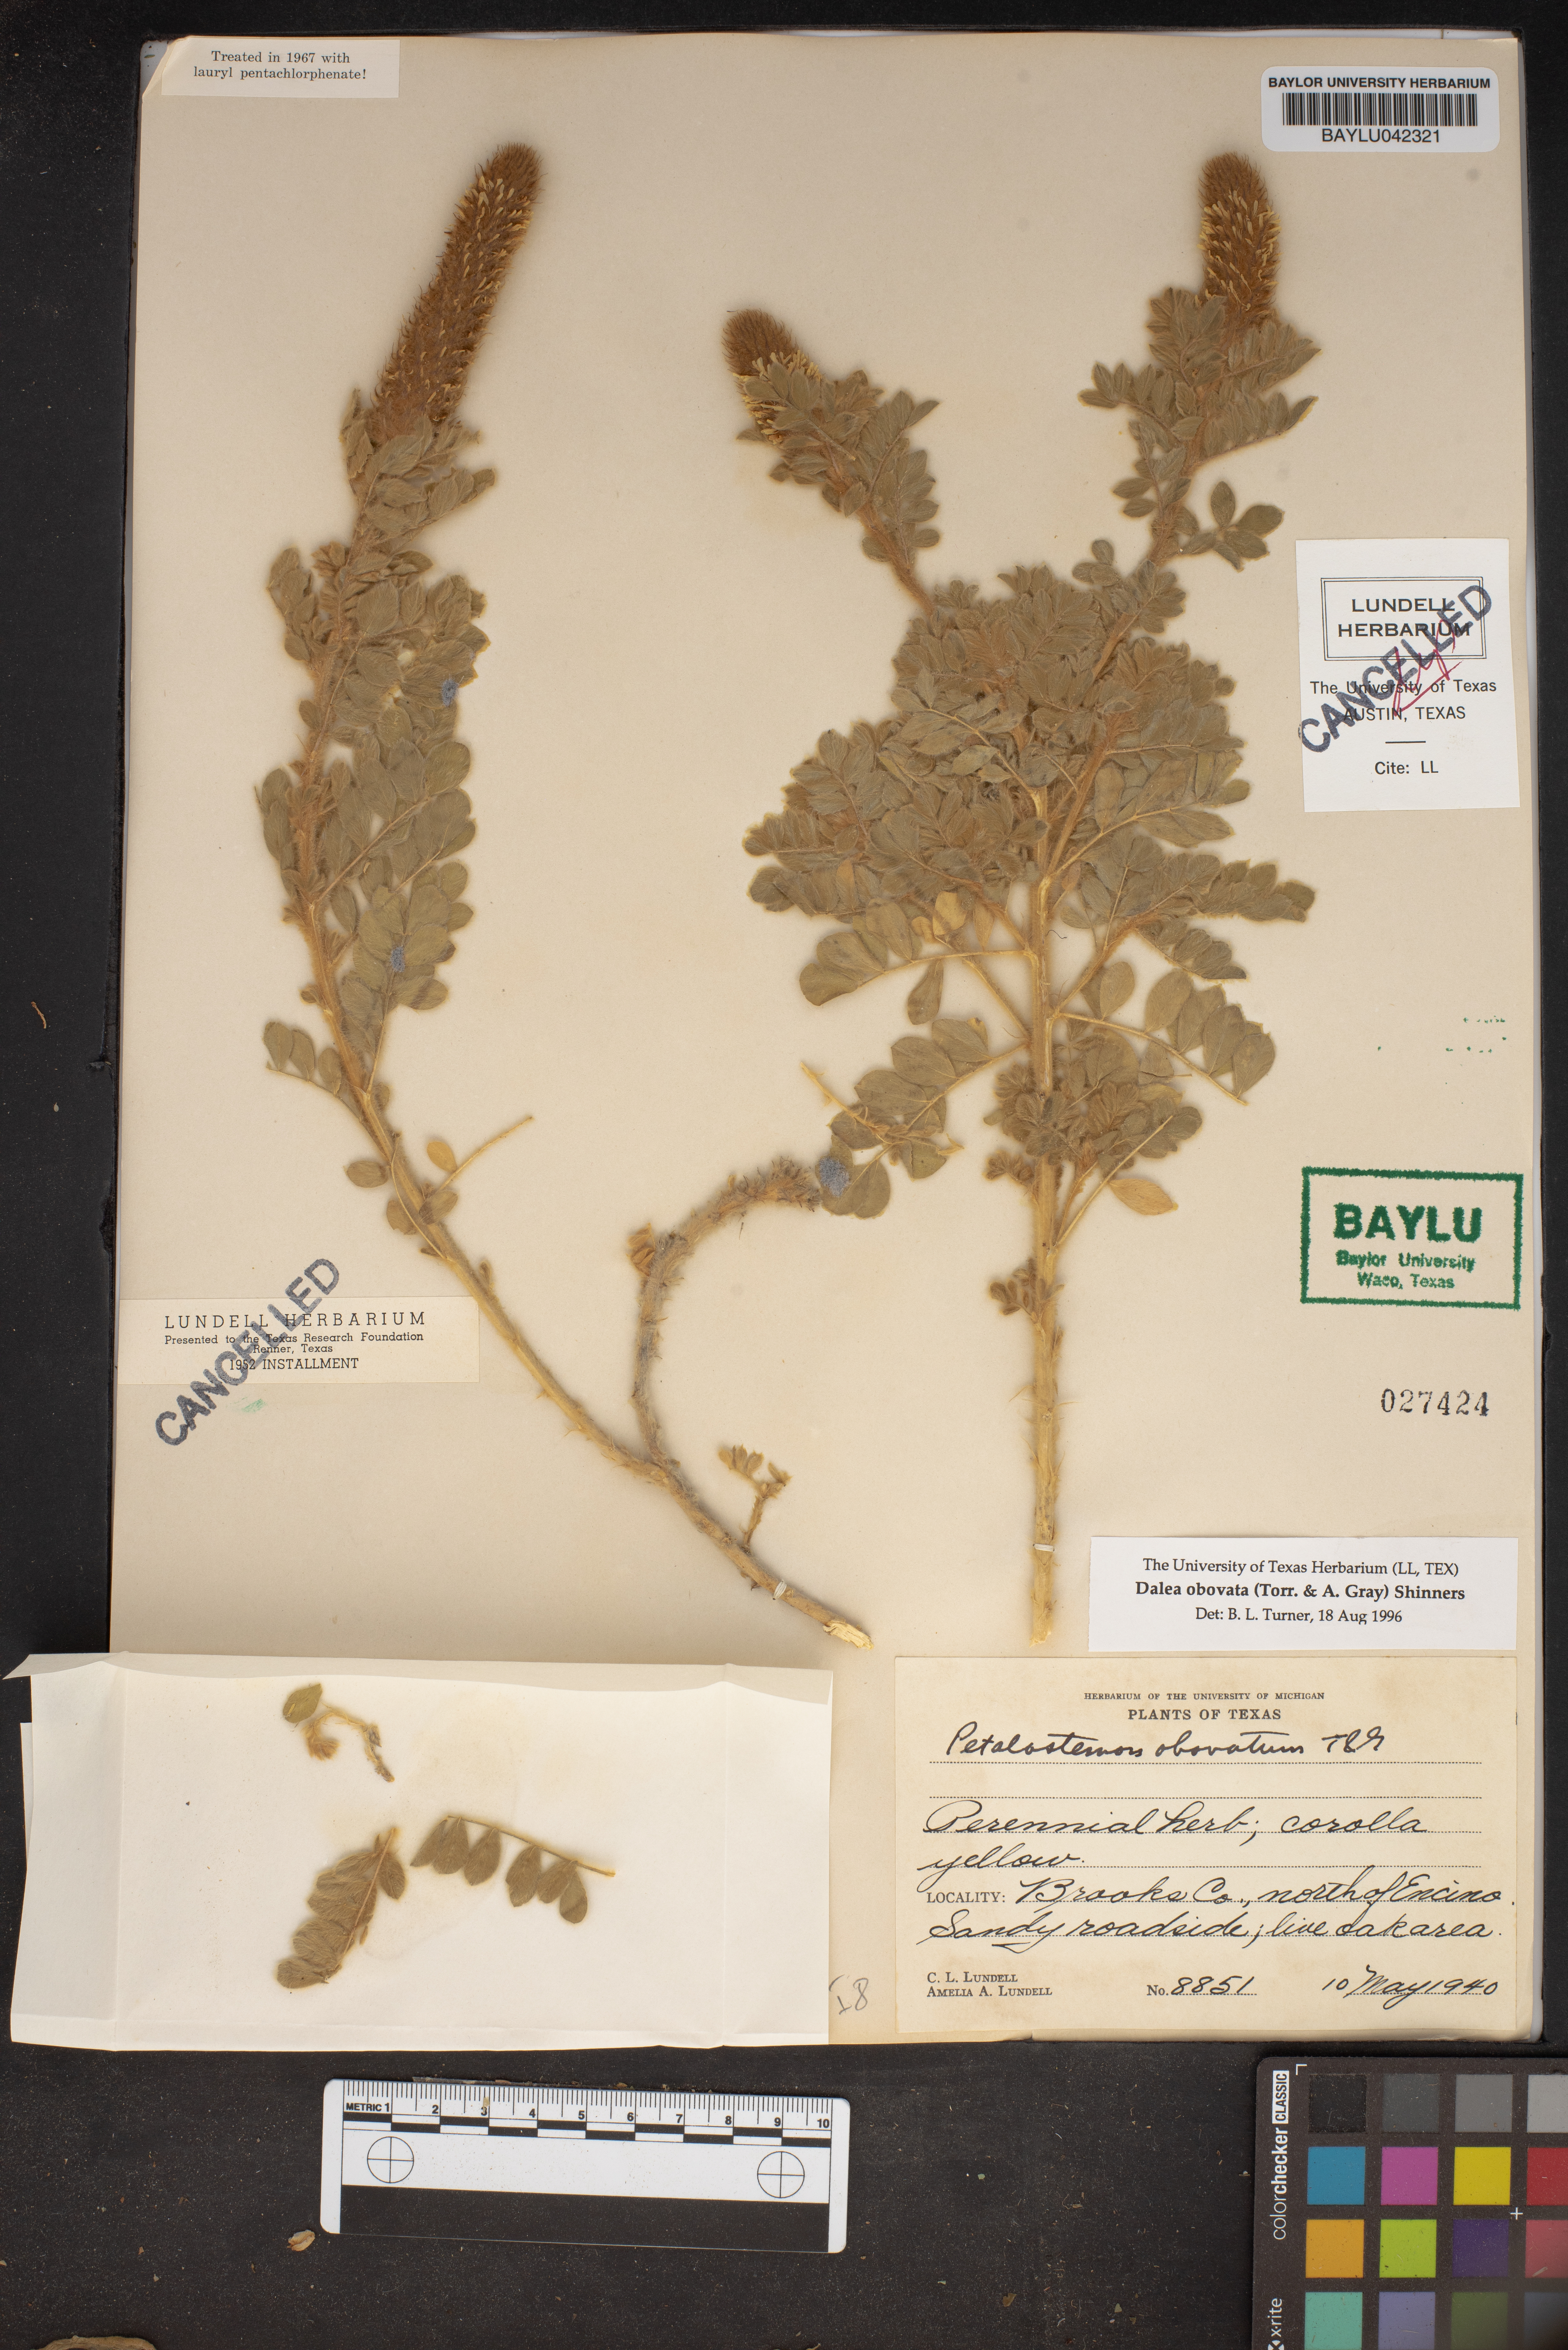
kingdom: Plantae
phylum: Tracheophyta
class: Magnoliopsida
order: Fabales
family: Fabaceae
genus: Dalea
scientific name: Dalea obovata
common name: Pussyfoot
